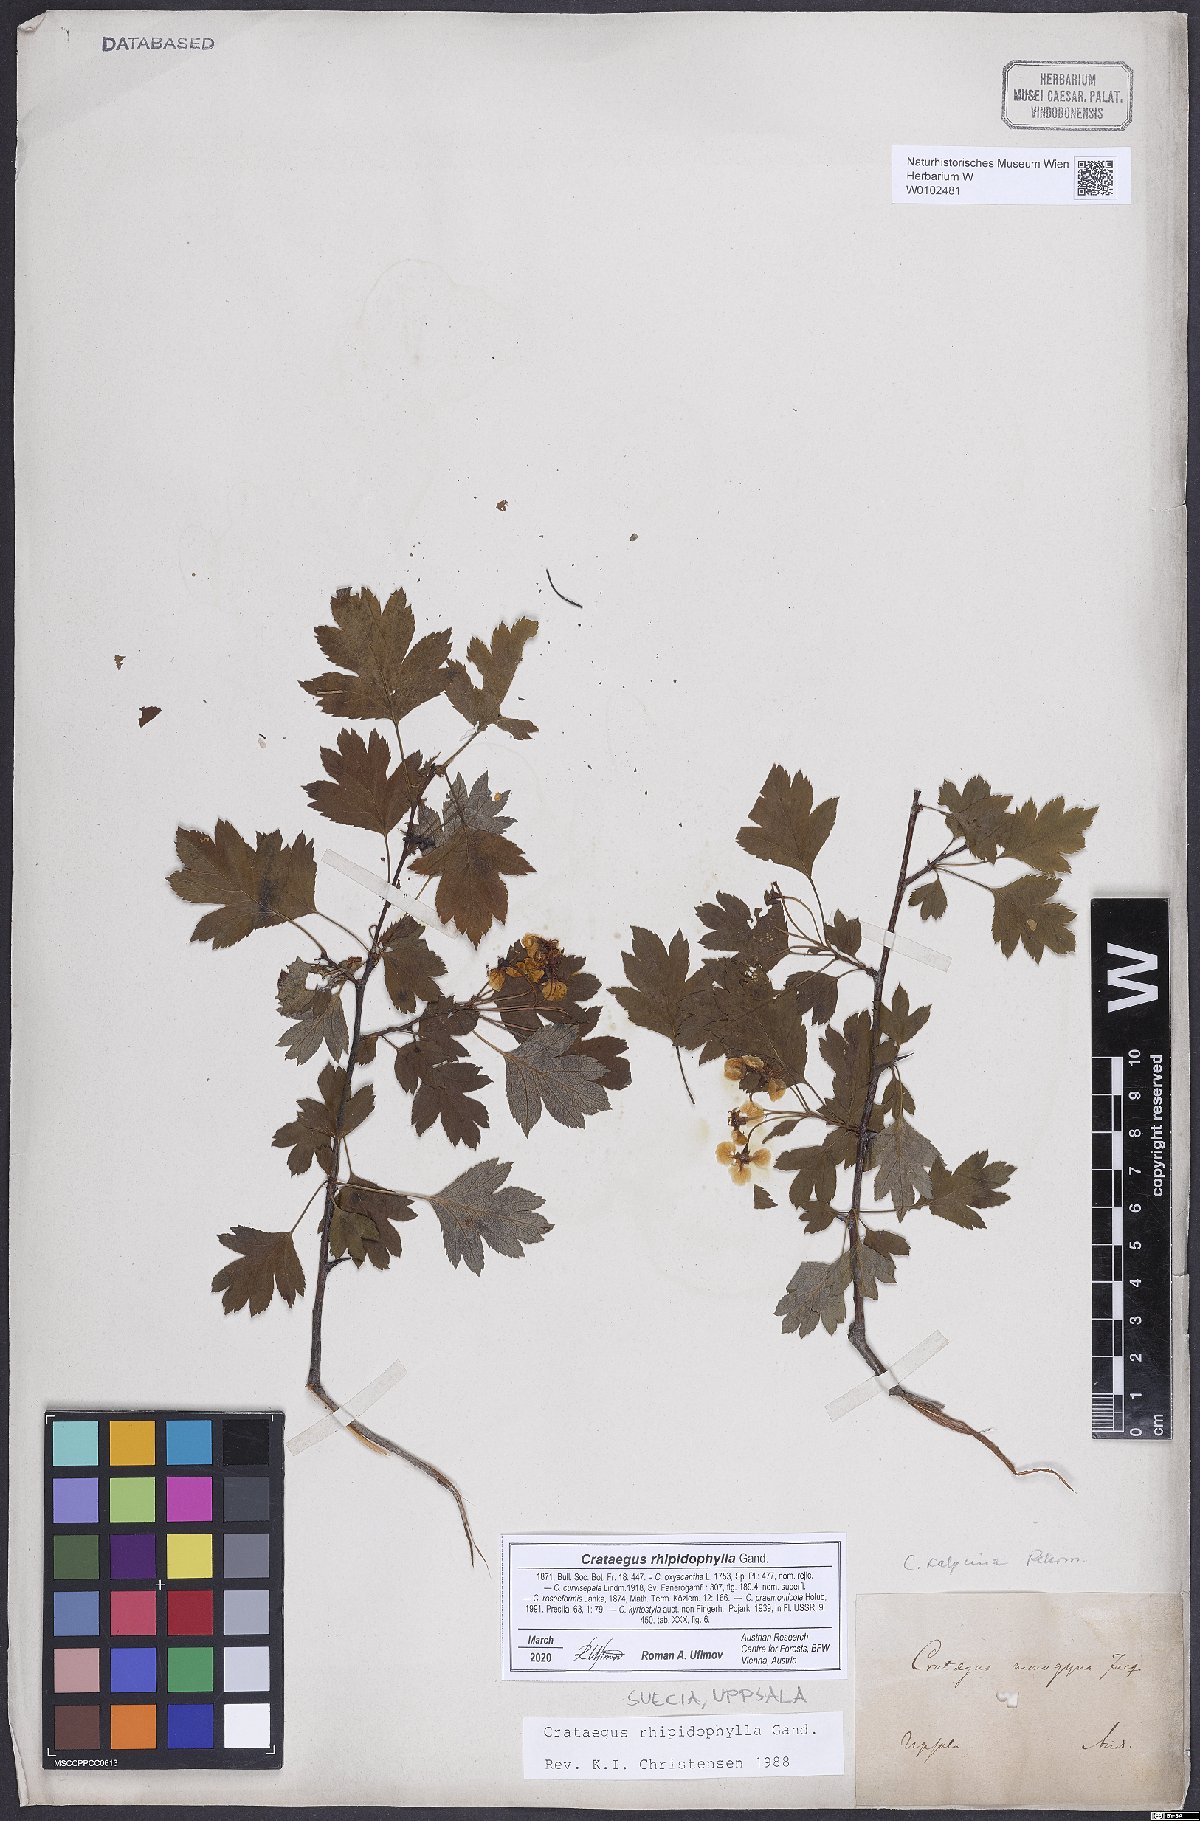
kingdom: Plantae
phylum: Tracheophyta
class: Magnoliopsida
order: Rosales
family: Rosaceae
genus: Crataegus
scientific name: Crataegus rhipidophylla
